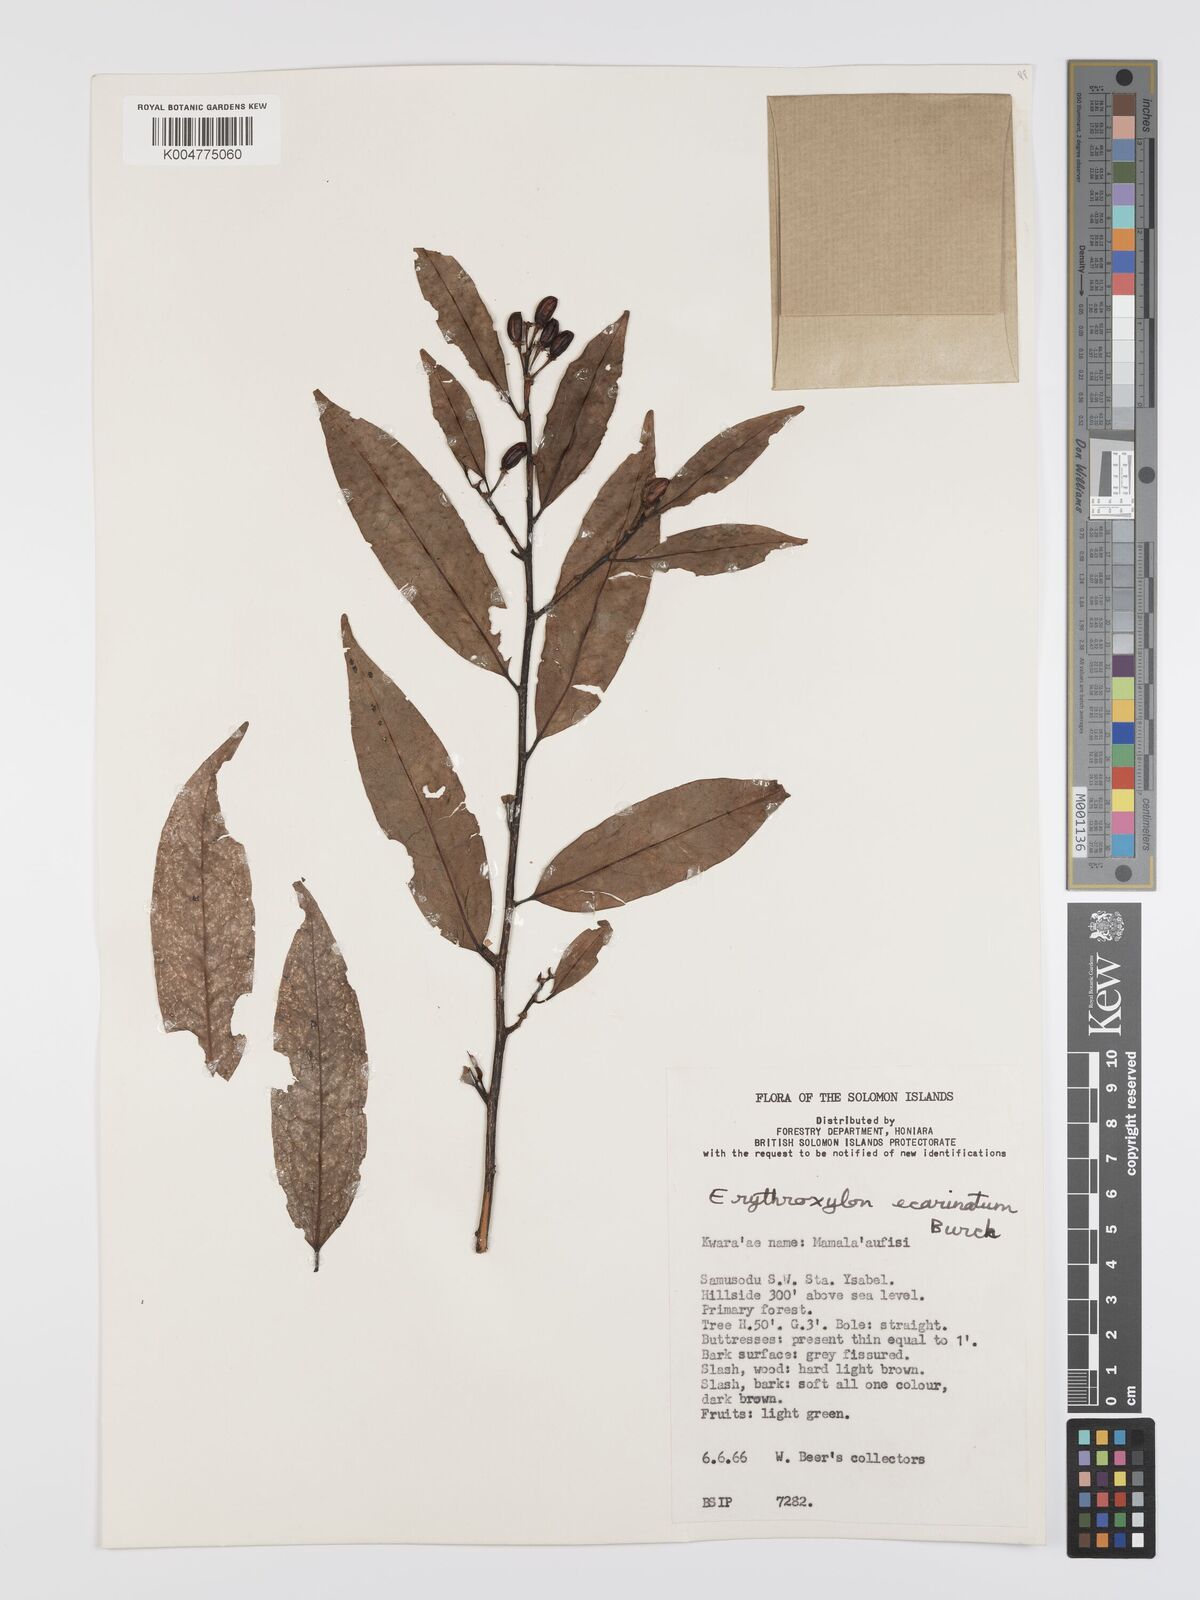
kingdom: Plantae
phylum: Tracheophyta
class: Magnoliopsida
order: Malpighiales
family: Erythroxylaceae
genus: Erythroxylum
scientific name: Erythroxylum ecarinatum
